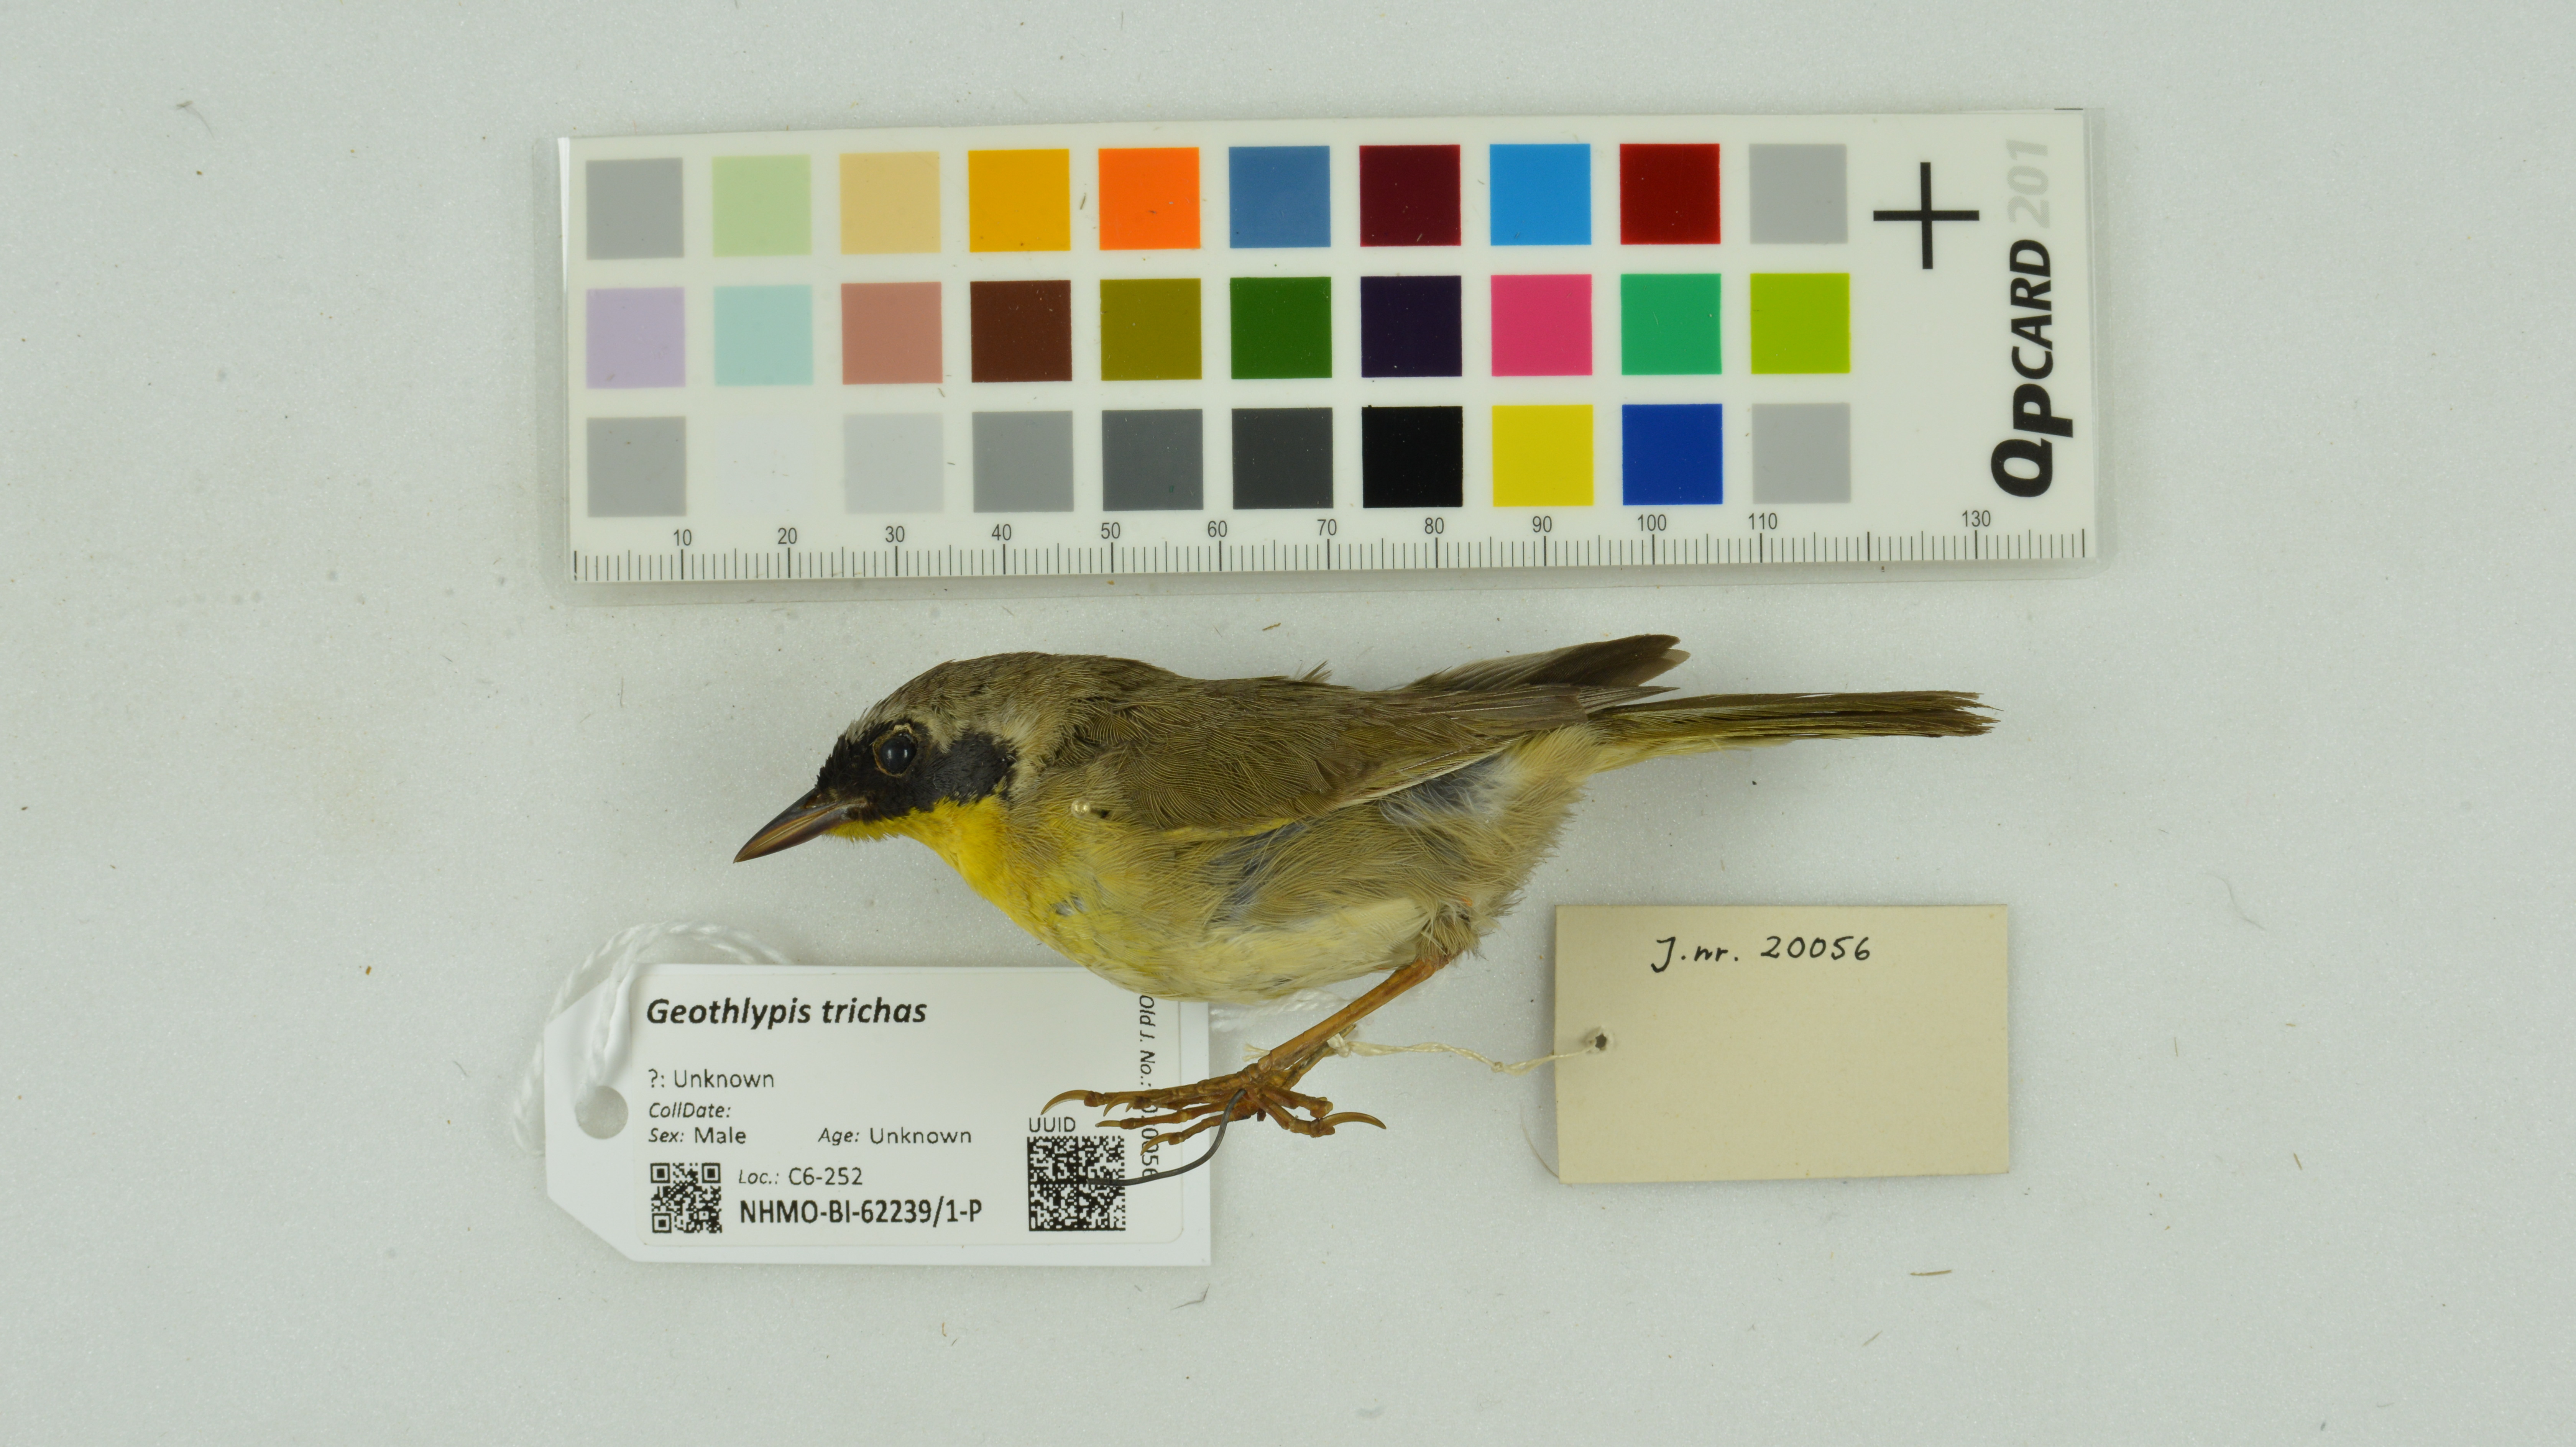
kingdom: Animalia
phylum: Chordata
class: Aves
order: Passeriformes
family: Parulidae
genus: Geothlypis
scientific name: Geothlypis trichas
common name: Common yellowthroat
